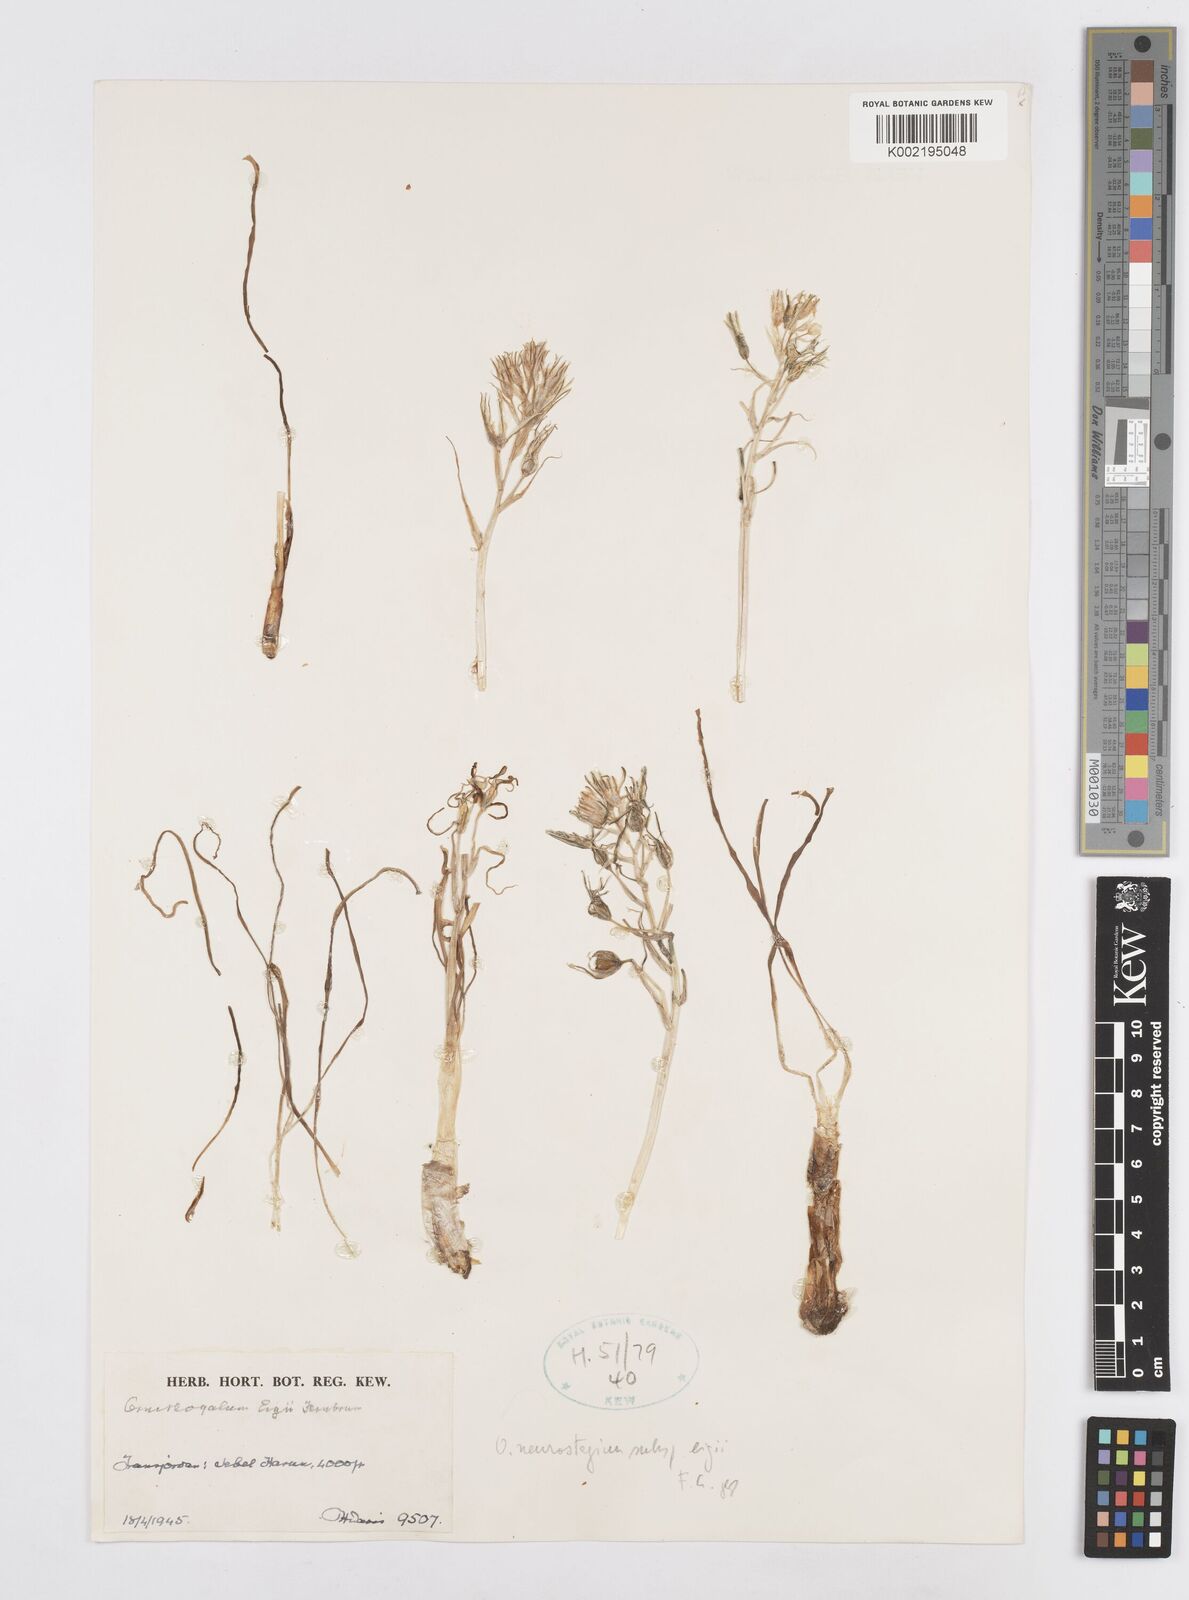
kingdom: Plantae
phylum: Tracheophyta
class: Liliopsida
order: Asparagales
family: Asparagaceae
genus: Ornithogalum
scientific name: Ornithogalum neurostegium
